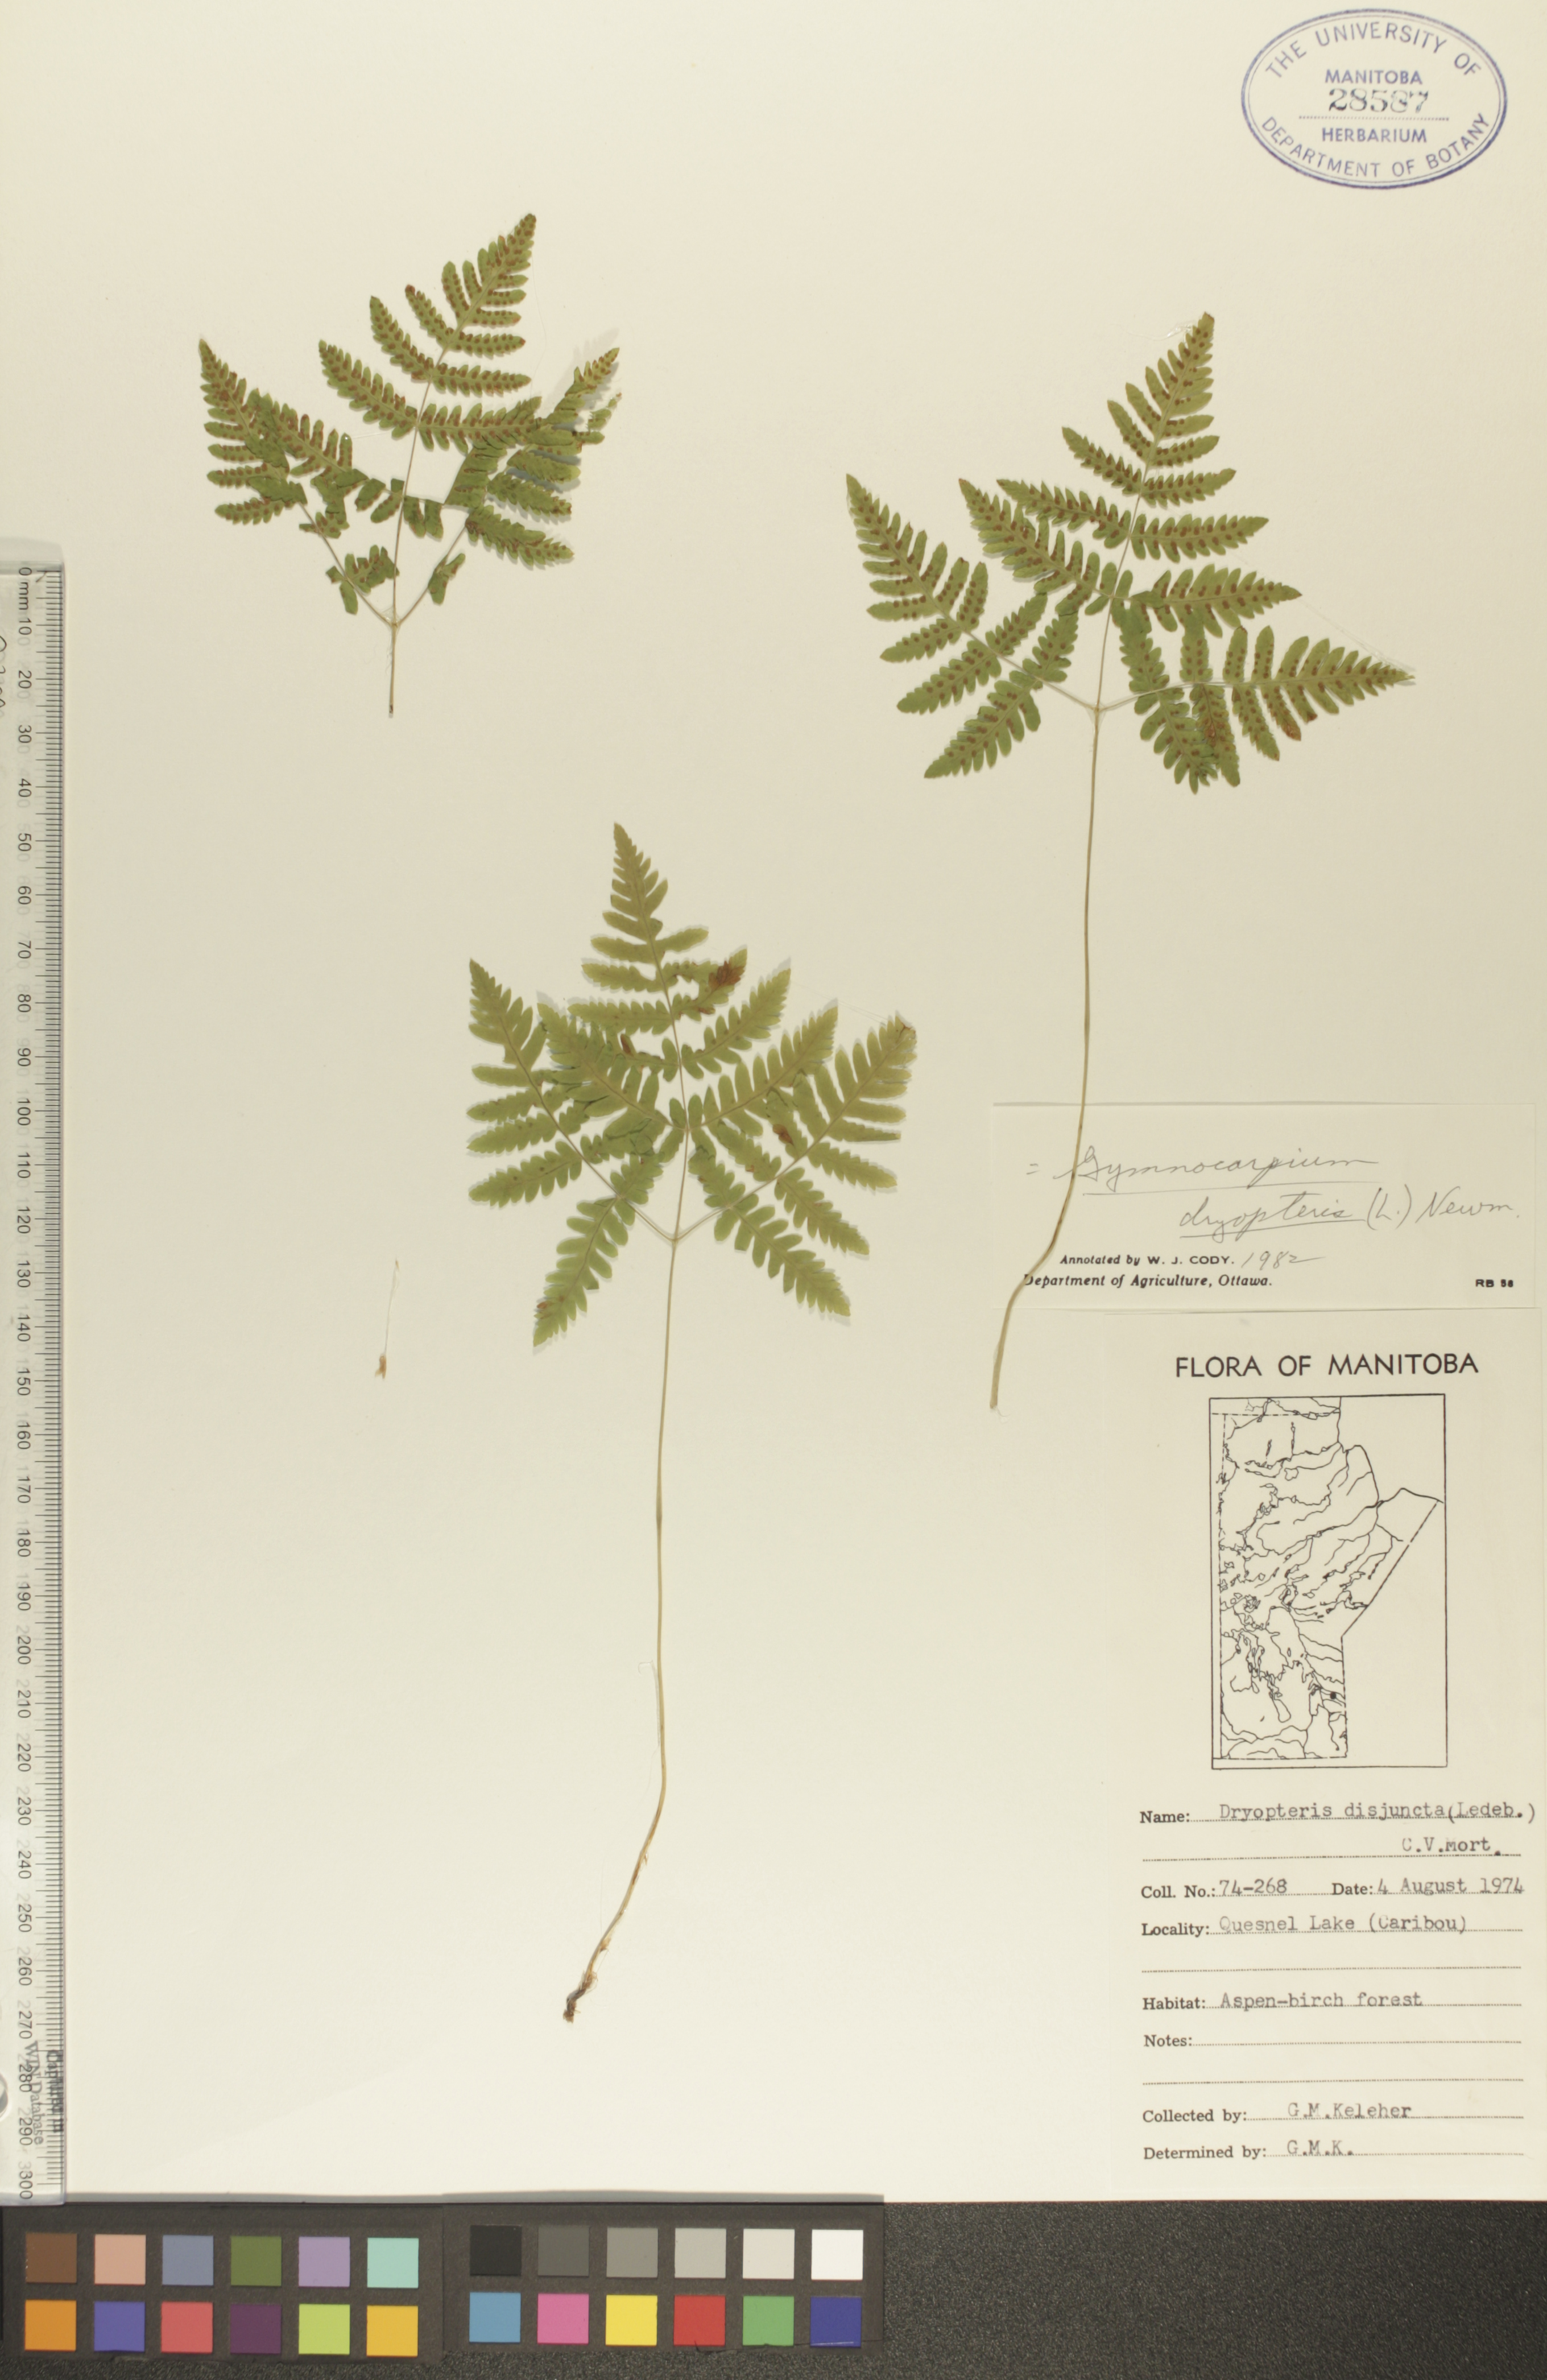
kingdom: Plantae
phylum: Tracheophyta
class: Polypodiopsida
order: Polypodiales
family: Cystopteridaceae
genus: Gymnocarpium
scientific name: Gymnocarpium dryopteris
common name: Oak fern
